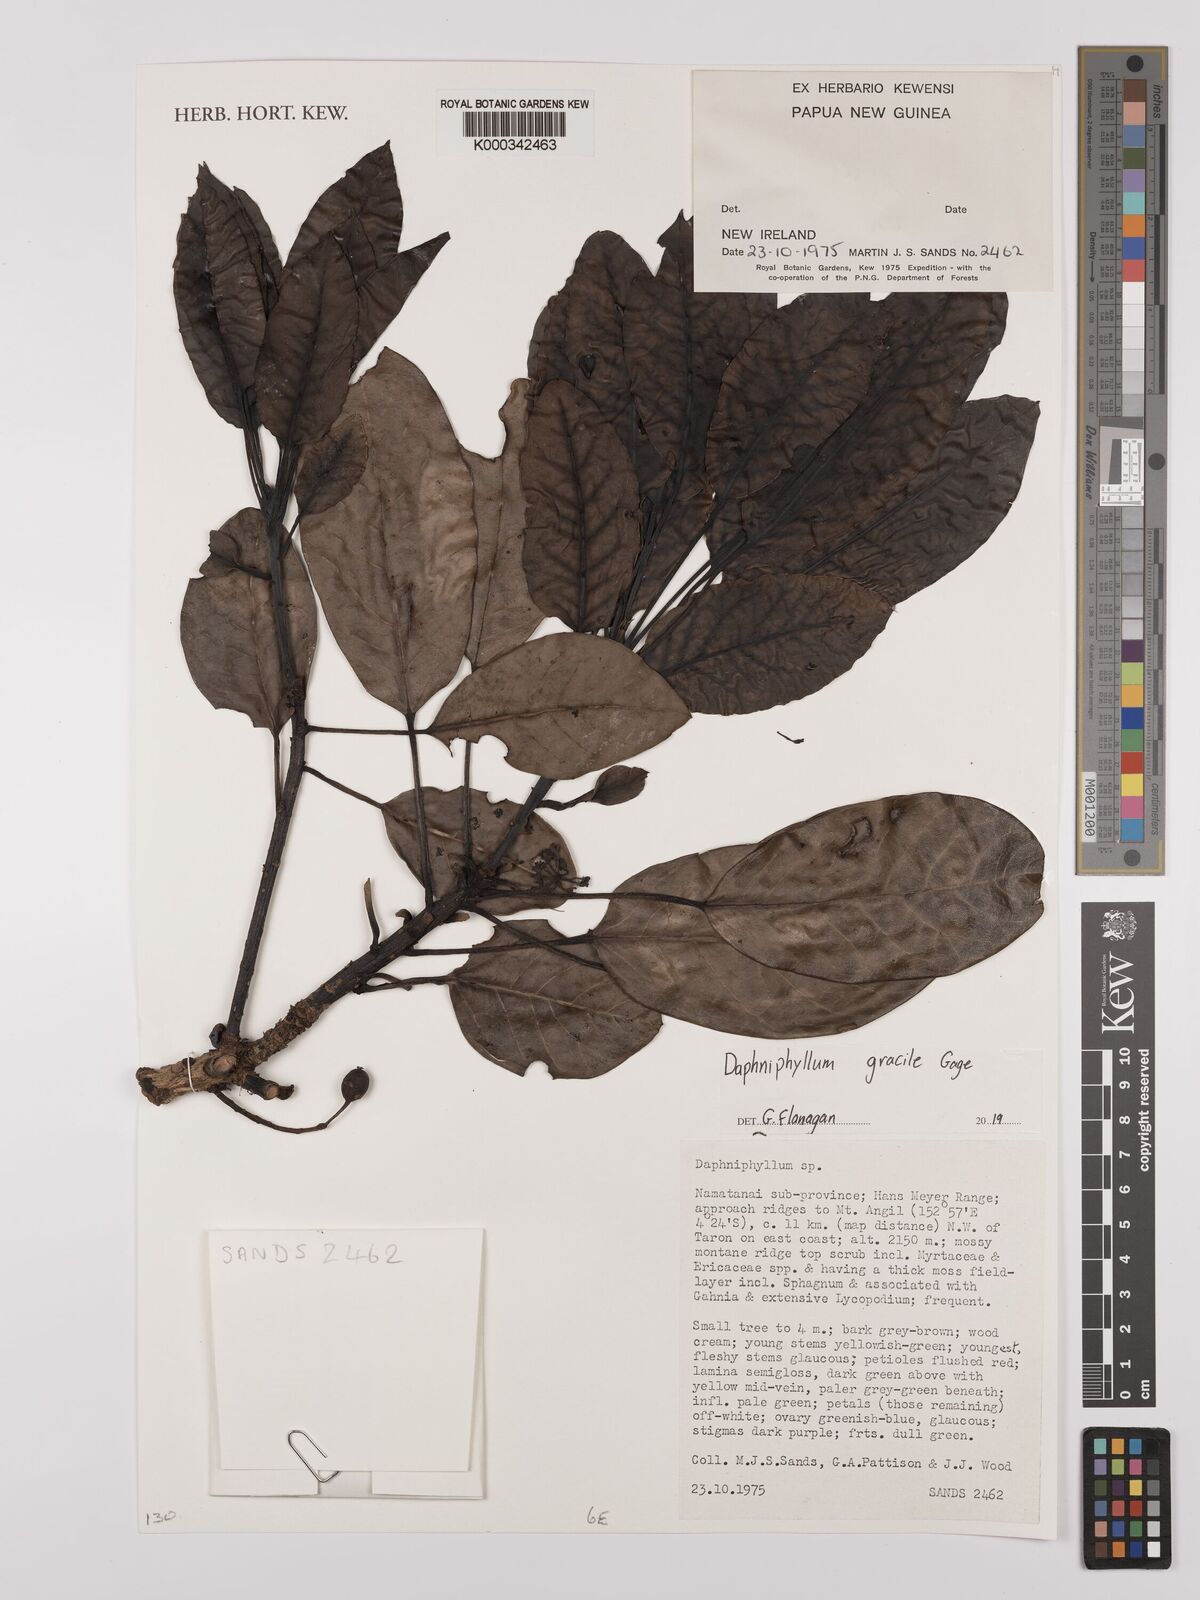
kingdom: Plantae
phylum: Tracheophyta
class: Magnoliopsida
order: Saxifragales
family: Daphniphyllaceae
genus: Daphniphyllum
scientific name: Daphniphyllum gracile
